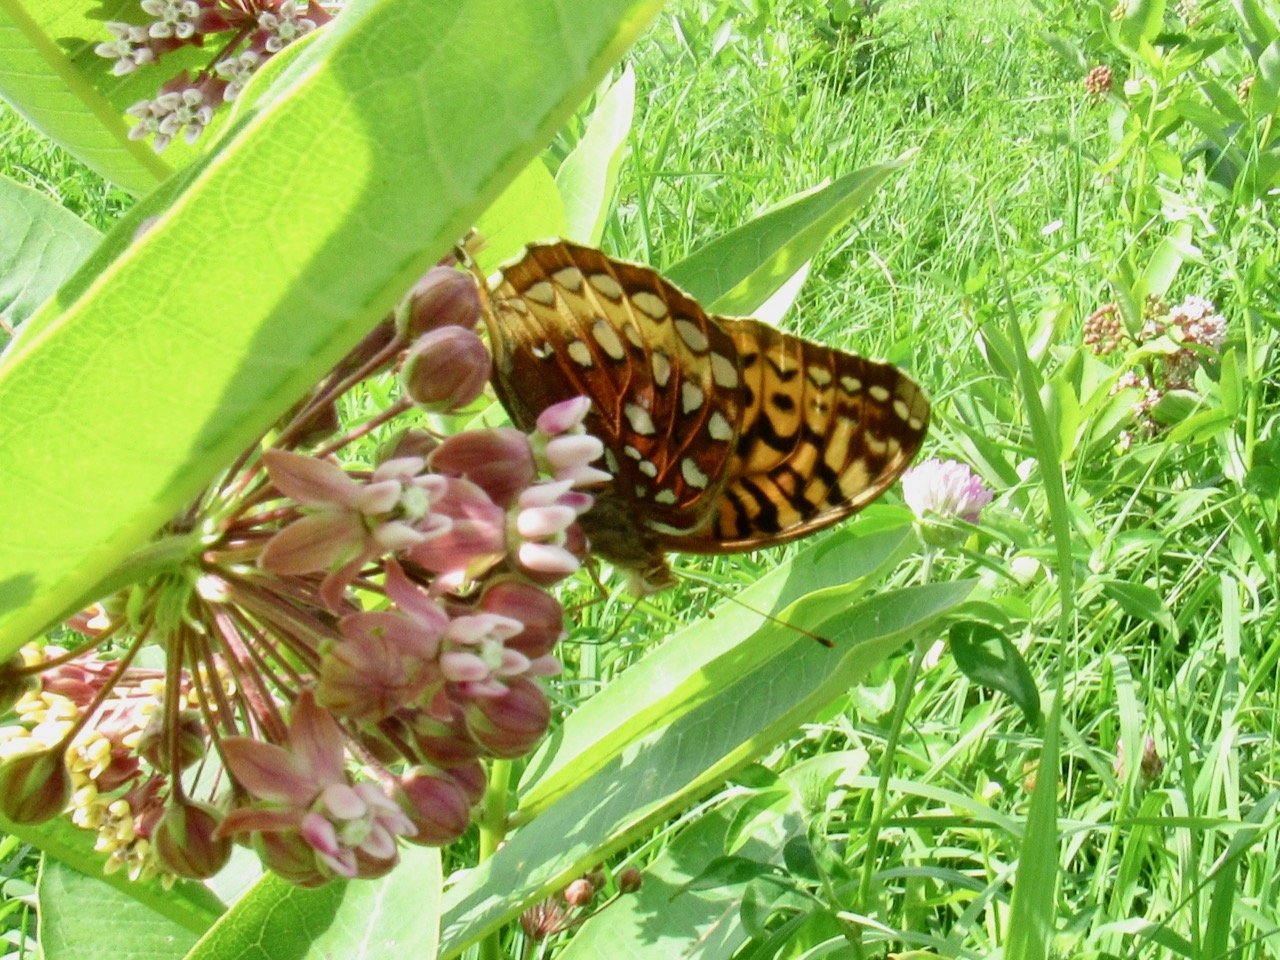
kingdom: Animalia
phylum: Arthropoda
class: Insecta
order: Lepidoptera
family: Nymphalidae
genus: Speyeria
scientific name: Speyeria aphrodite
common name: Aphrodite Fritillary
